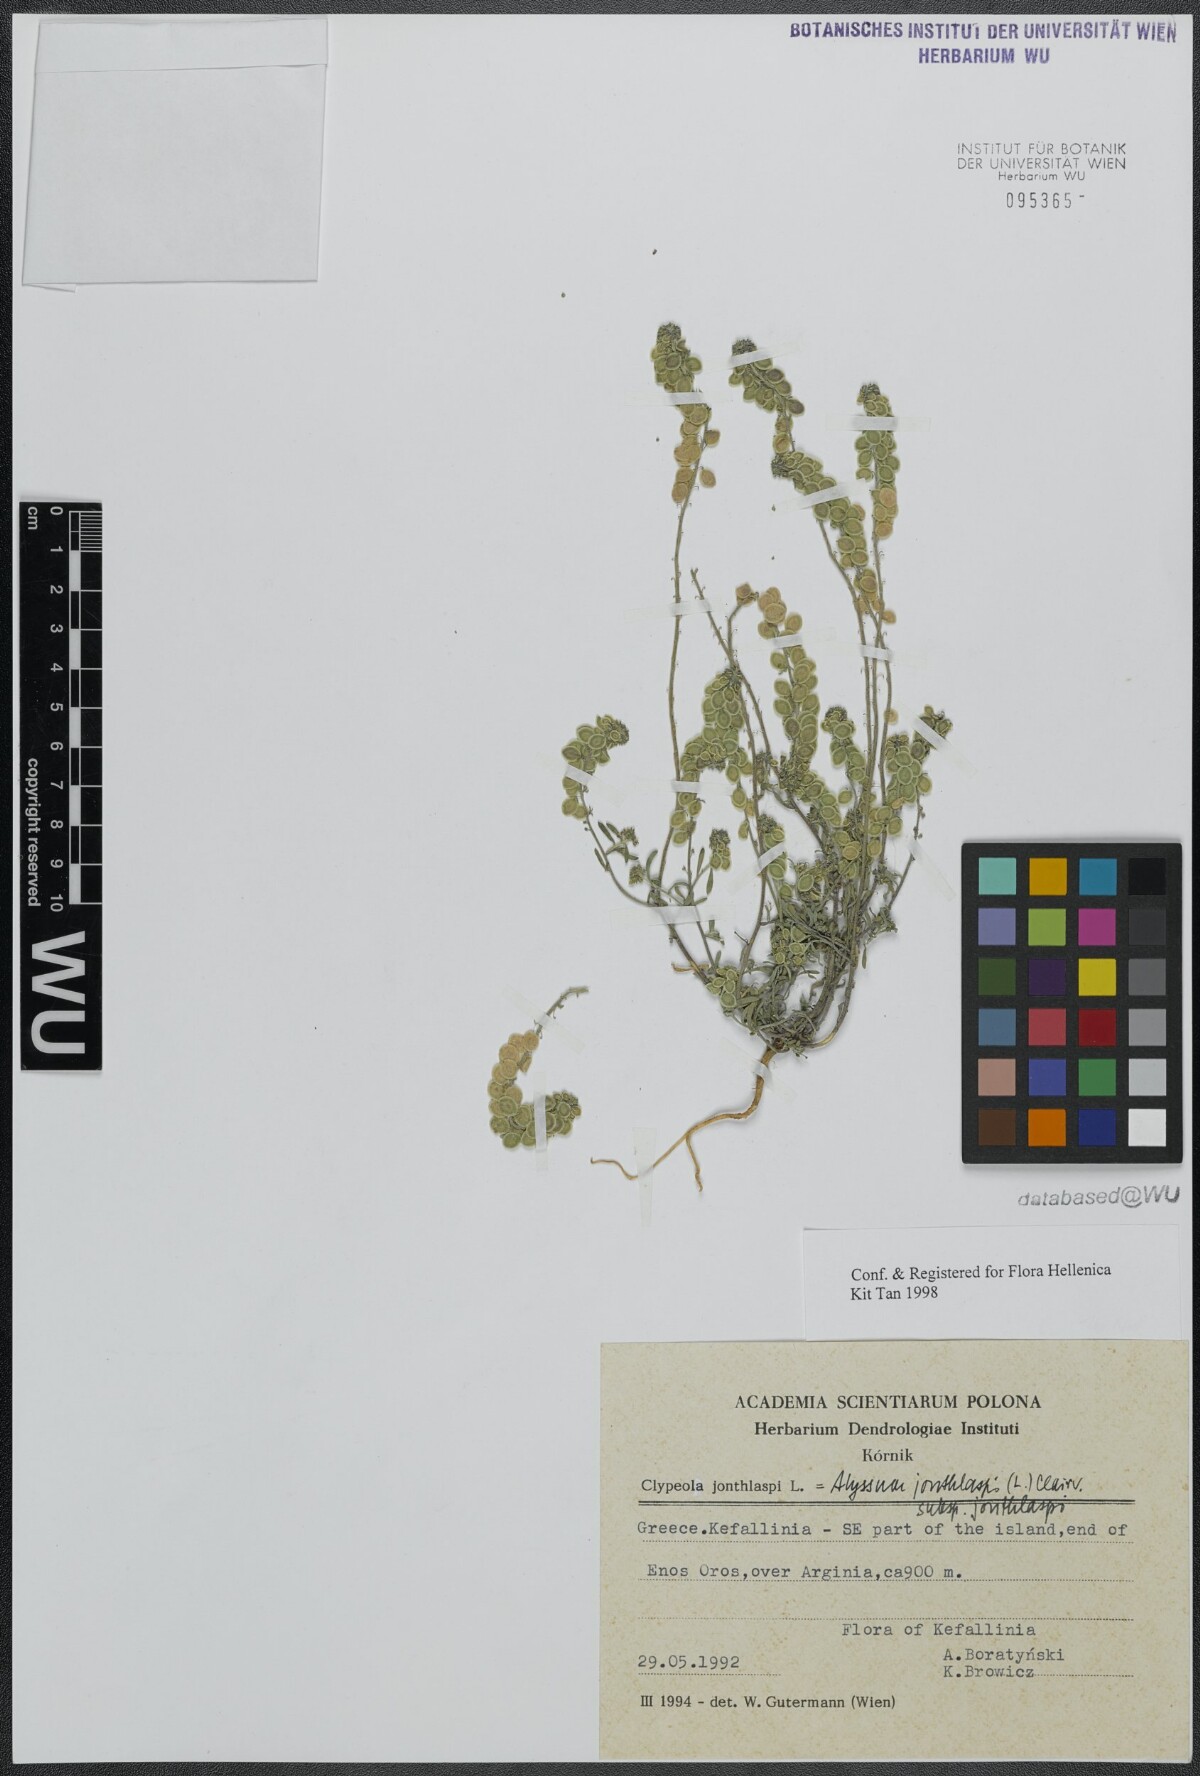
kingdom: Plantae
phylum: Tracheophyta
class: Magnoliopsida
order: Brassicales
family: Brassicaceae
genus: Clypeola
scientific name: Clypeola jonthlaspi
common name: Disk cress
